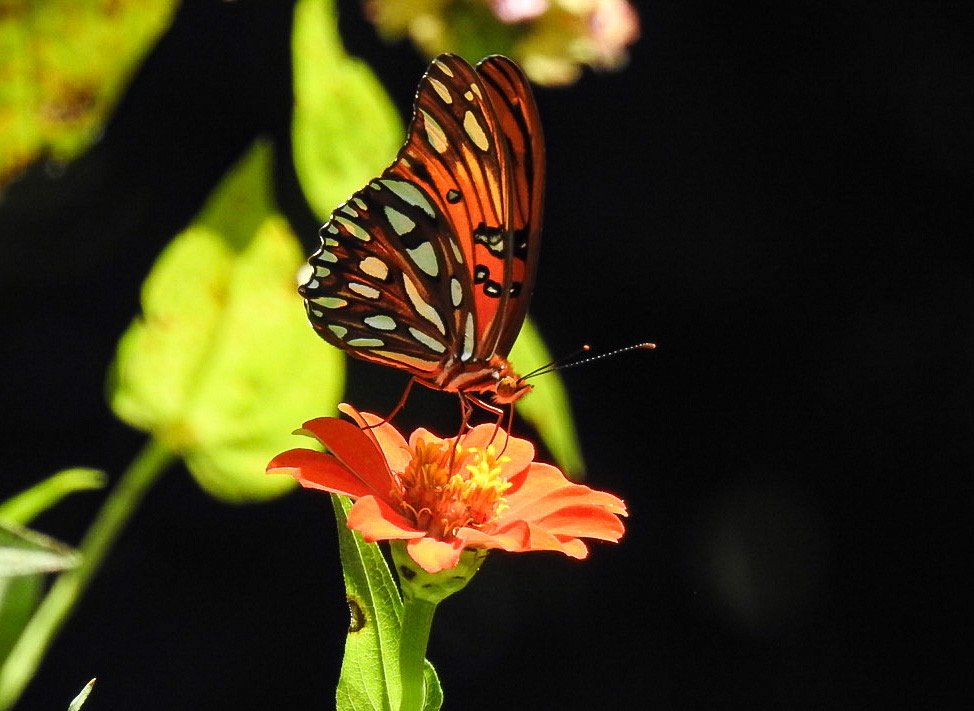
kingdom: Animalia
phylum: Arthropoda
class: Insecta
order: Lepidoptera
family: Nymphalidae
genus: Dione
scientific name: Dione vanillae
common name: Gulf Fritillary
